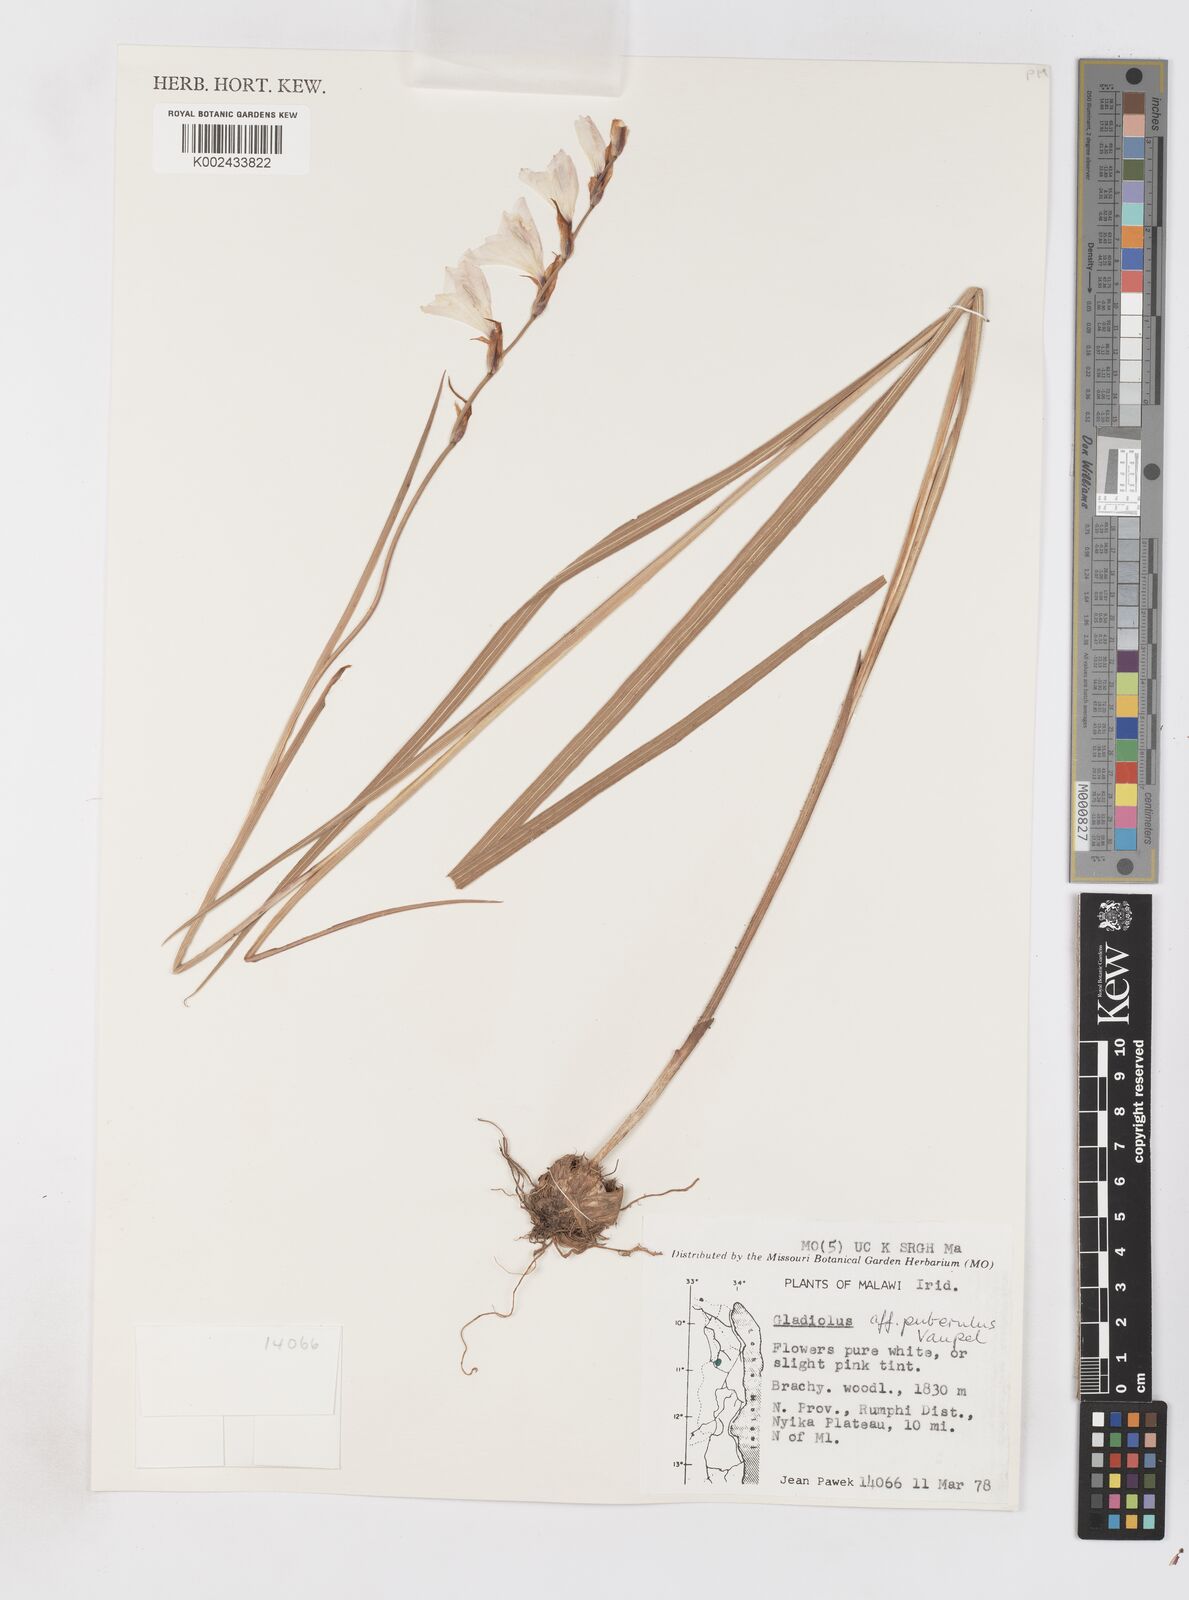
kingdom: Plantae
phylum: Tracheophyta
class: Liliopsida
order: Asparagales
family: Iridaceae
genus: Gladiolus
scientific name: Gladiolus intonsus
